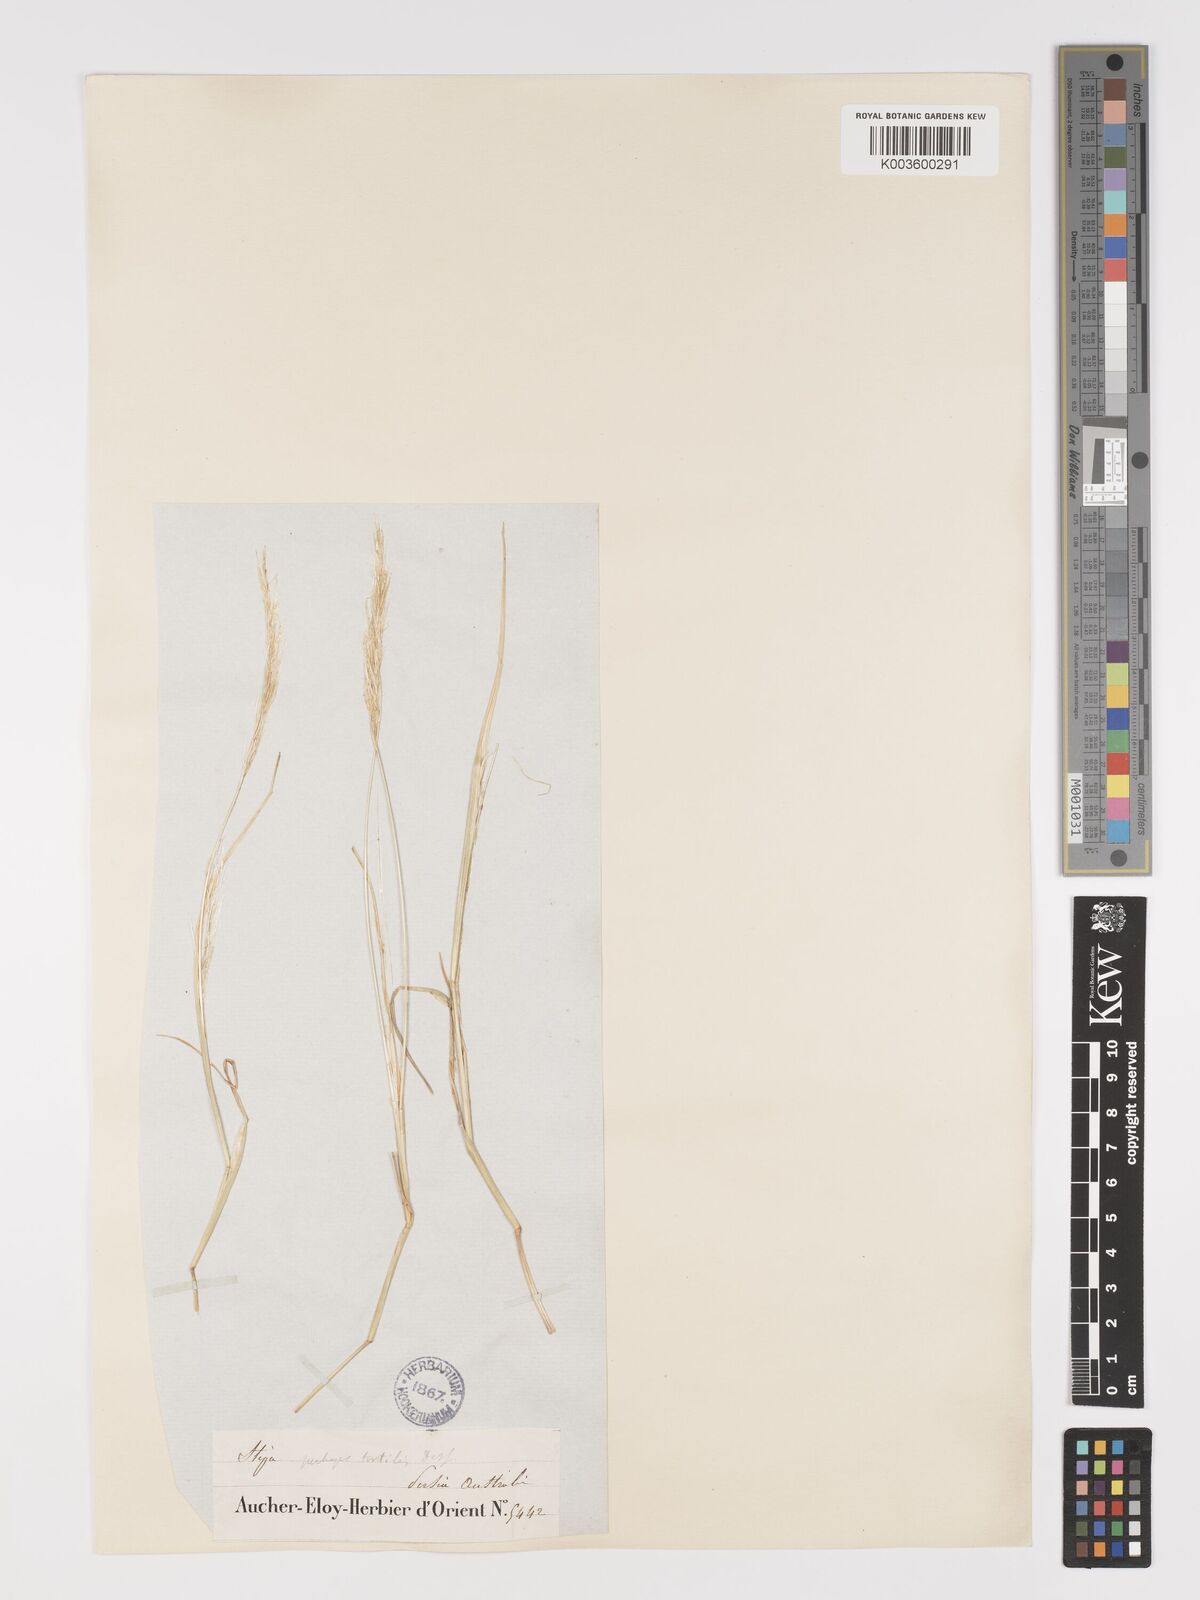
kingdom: Plantae
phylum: Tracheophyta
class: Liliopsida
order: Poales
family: Poaceae
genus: Stipellula
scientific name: Stipellula capensis
